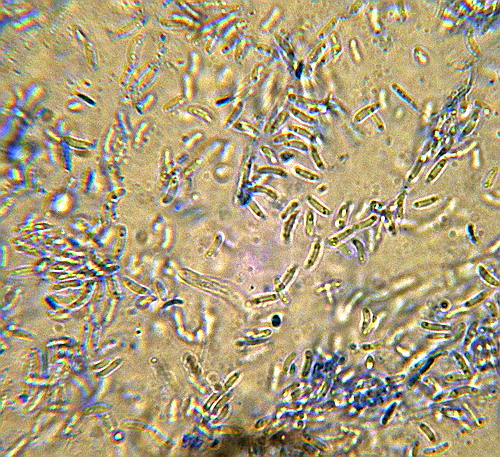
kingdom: Fungi
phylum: Ascomycota
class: Leotiomycetes
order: Helotiales
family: Gelatinodiscaceae
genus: Ascocoryne
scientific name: Ascocoryne sarcoides
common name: rødlilla sejskive
